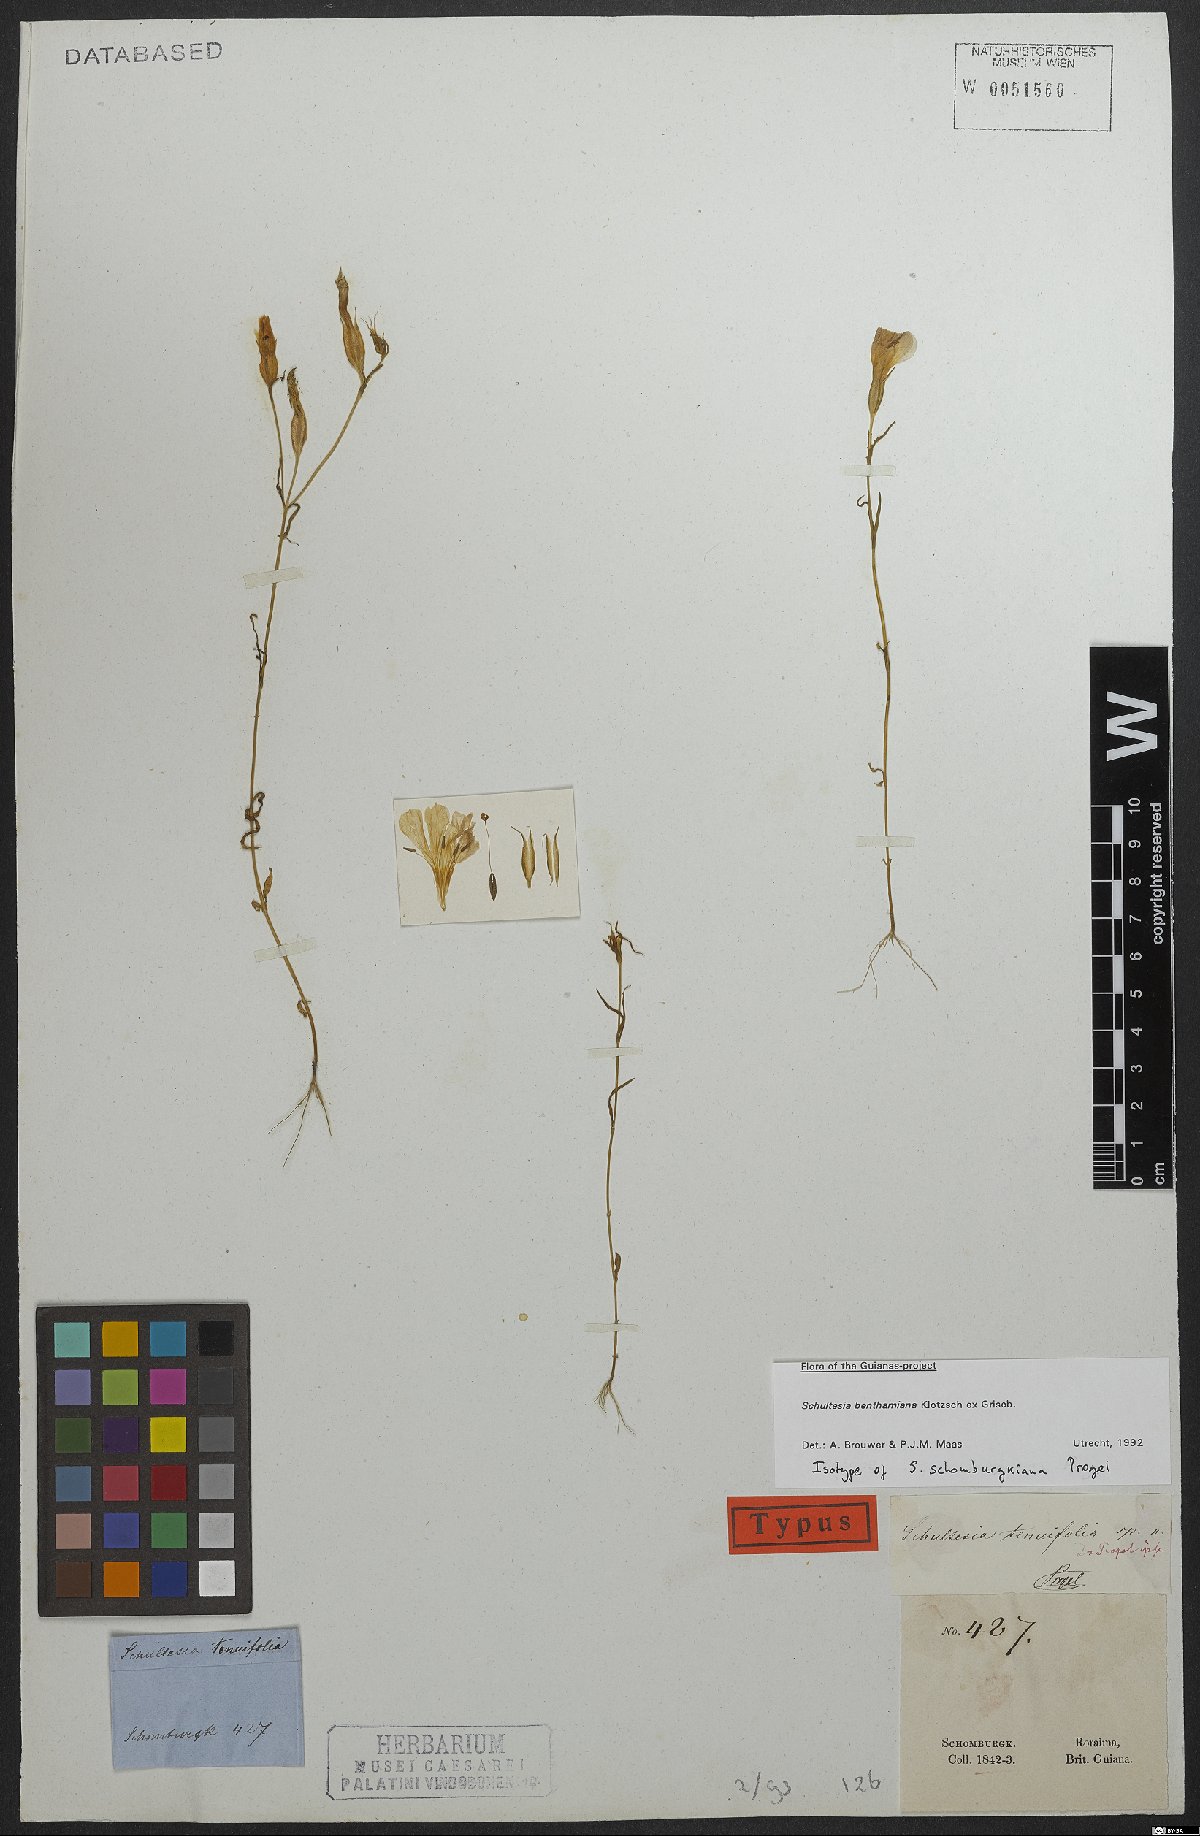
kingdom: Plantae
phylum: Tracheophyta
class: Magnoliopsida
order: Gentianales
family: Gentianaceae
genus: Schultesia
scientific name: Schultesia benthamiana
